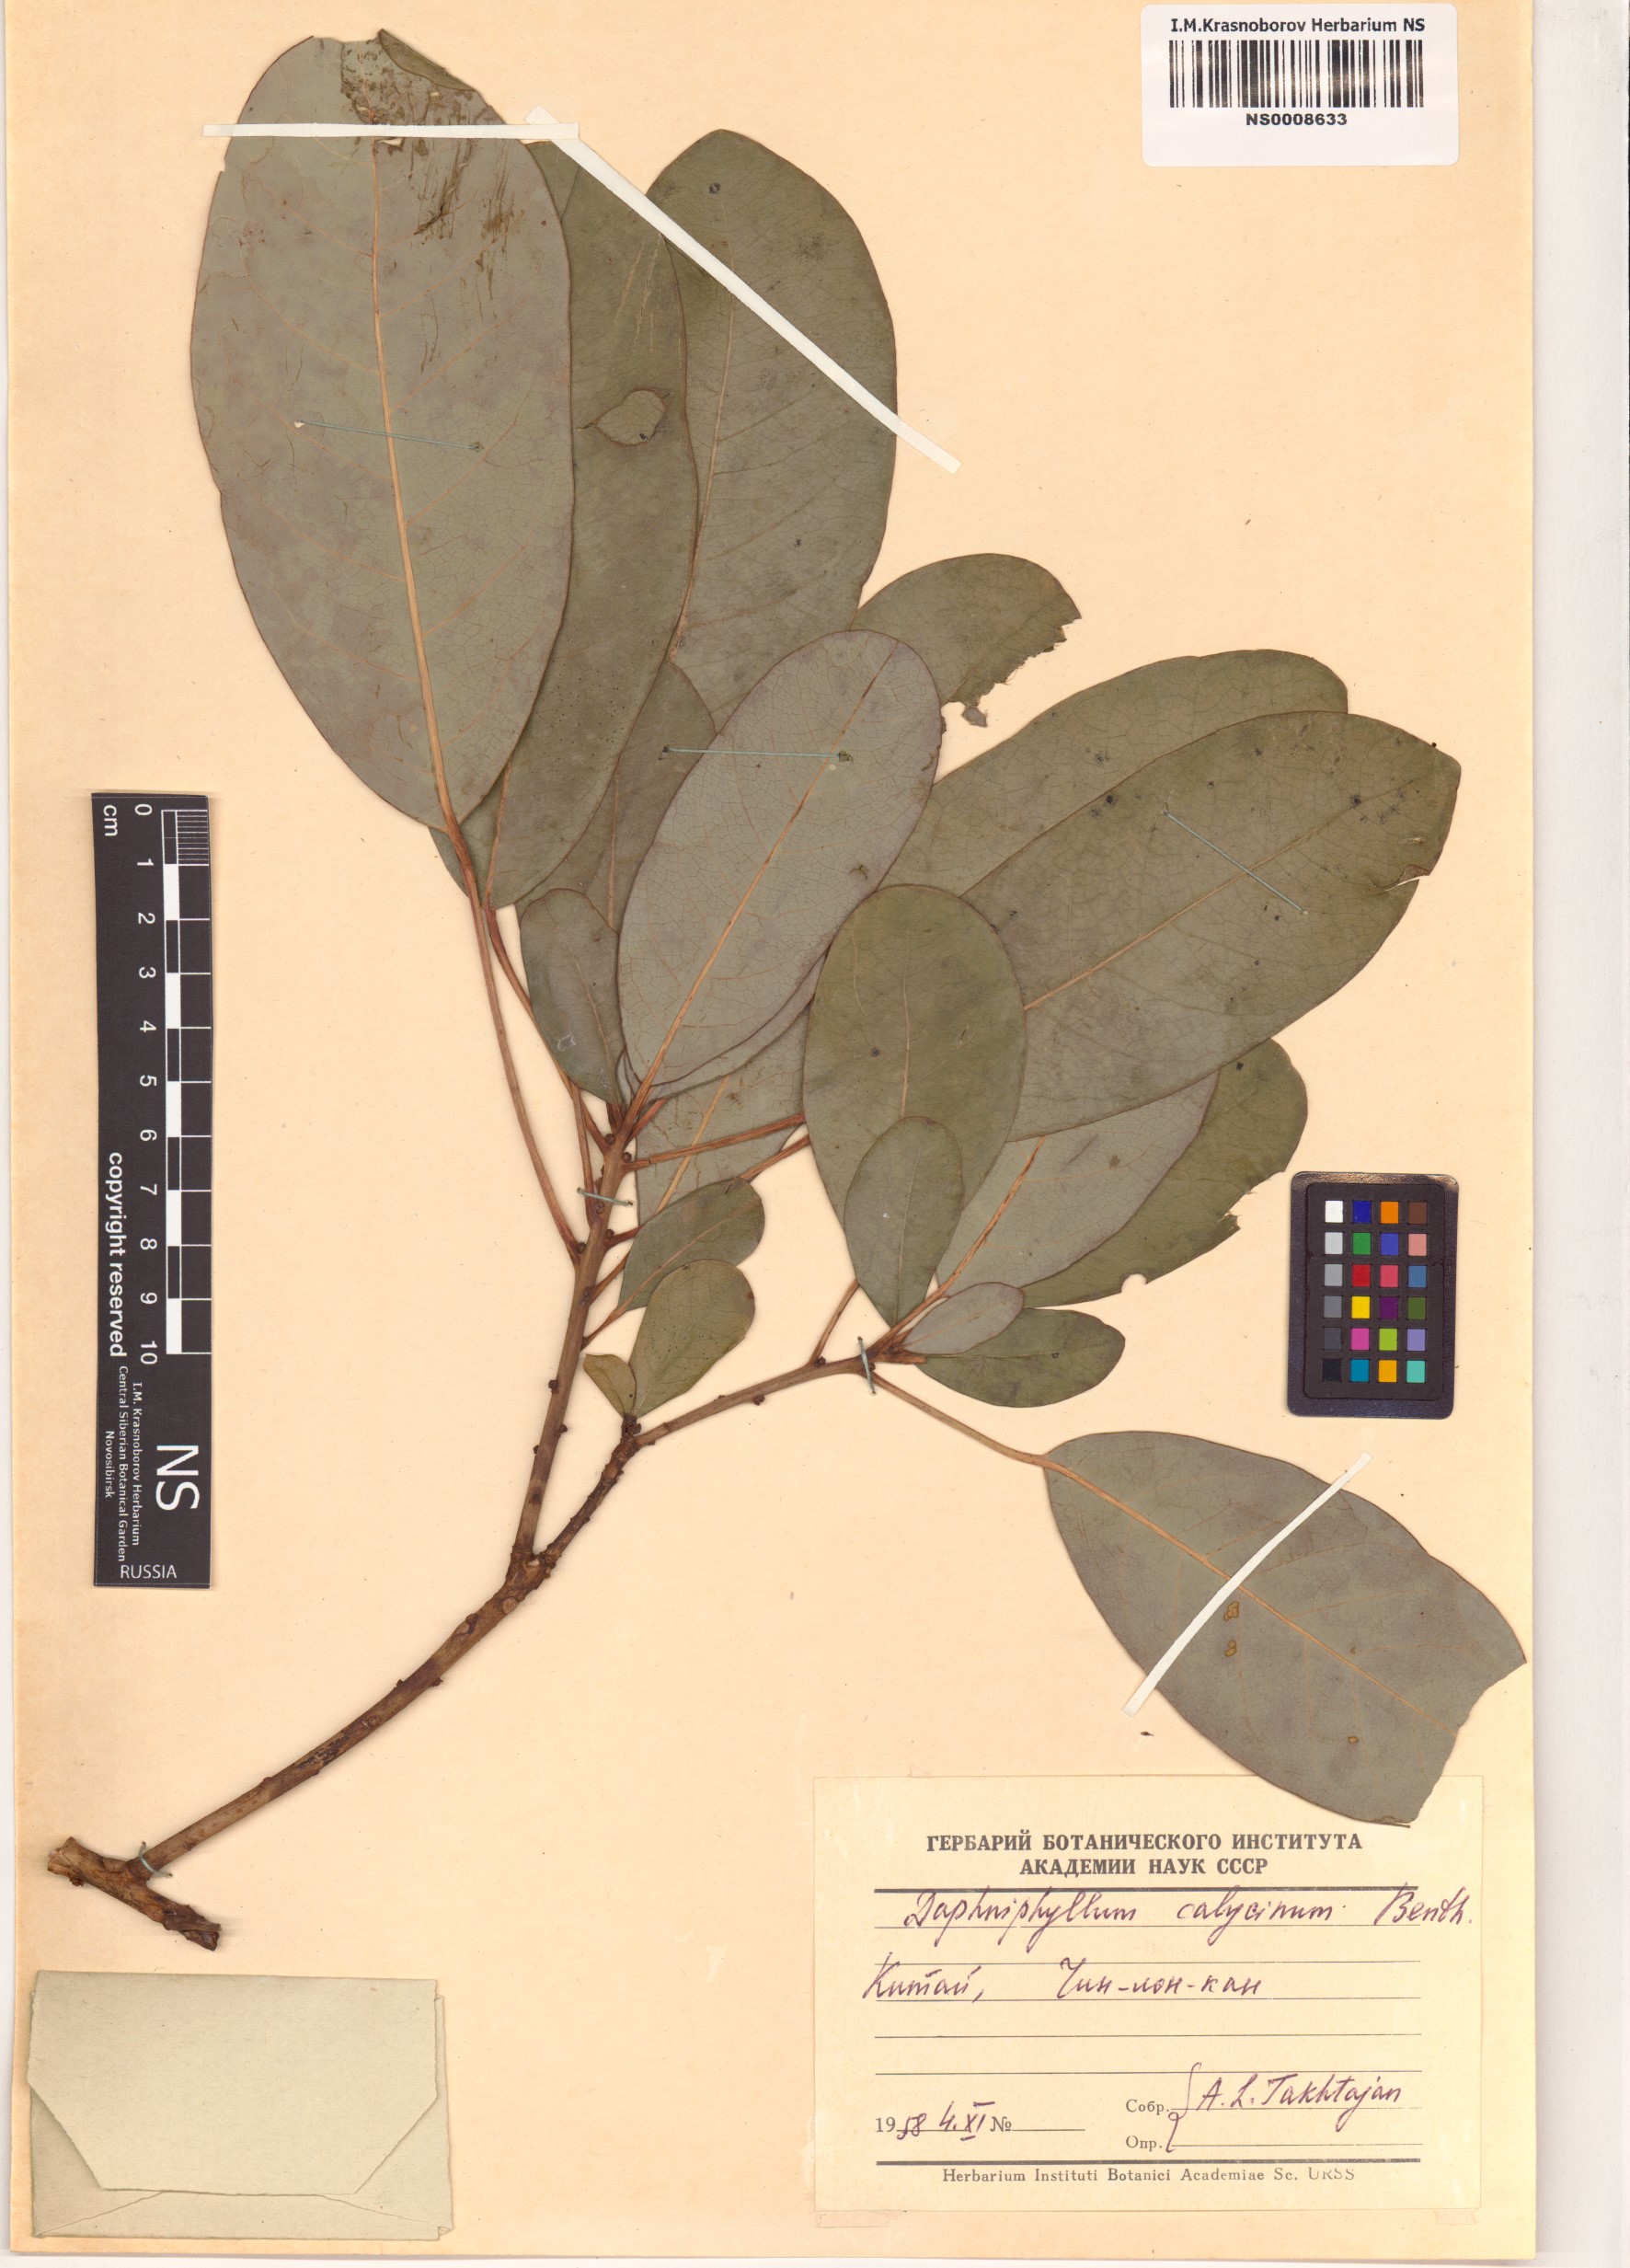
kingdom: Plantae
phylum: Tracheophyta
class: Magnoliopsida
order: Saxifragales
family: Daphniphyllaceae
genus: Daphniphyllum
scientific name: Daphniphyllum calycinum
